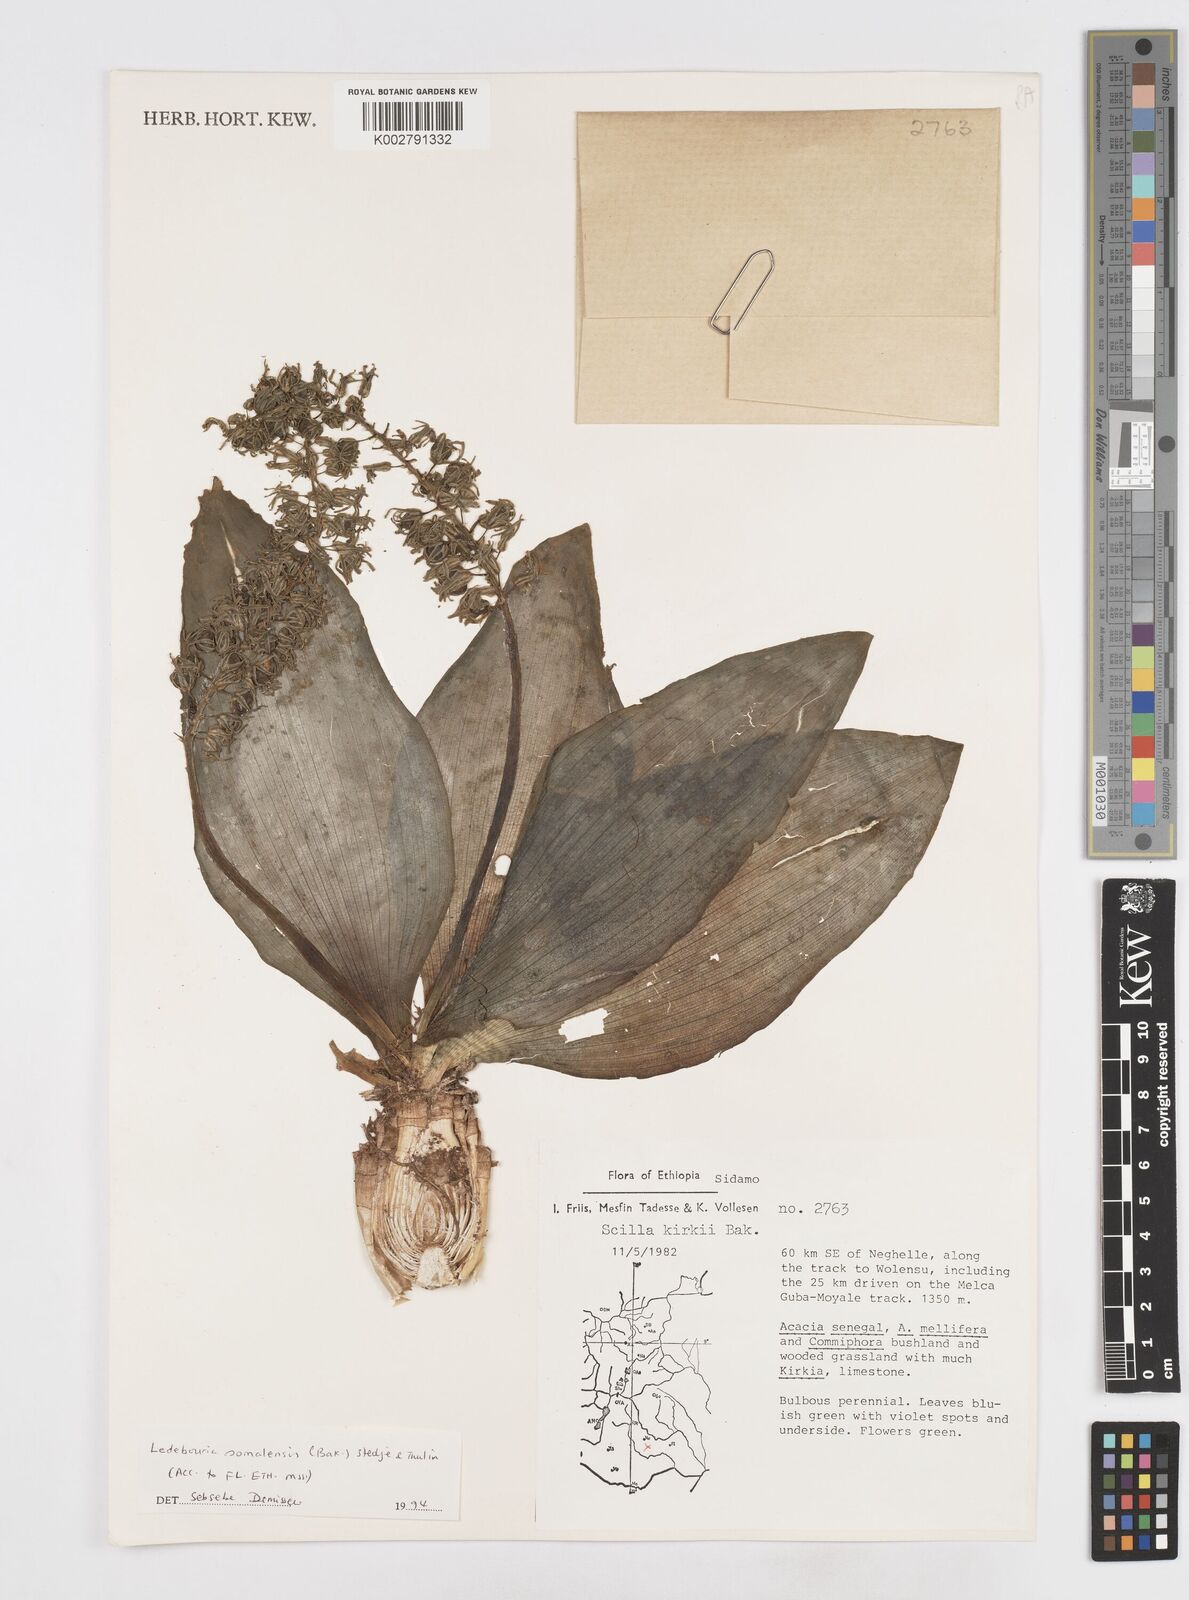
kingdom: Plantae
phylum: Tracheophyta
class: Liliopsida
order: Asparagales
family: Asparagaceae
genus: Scilla
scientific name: Scilla
